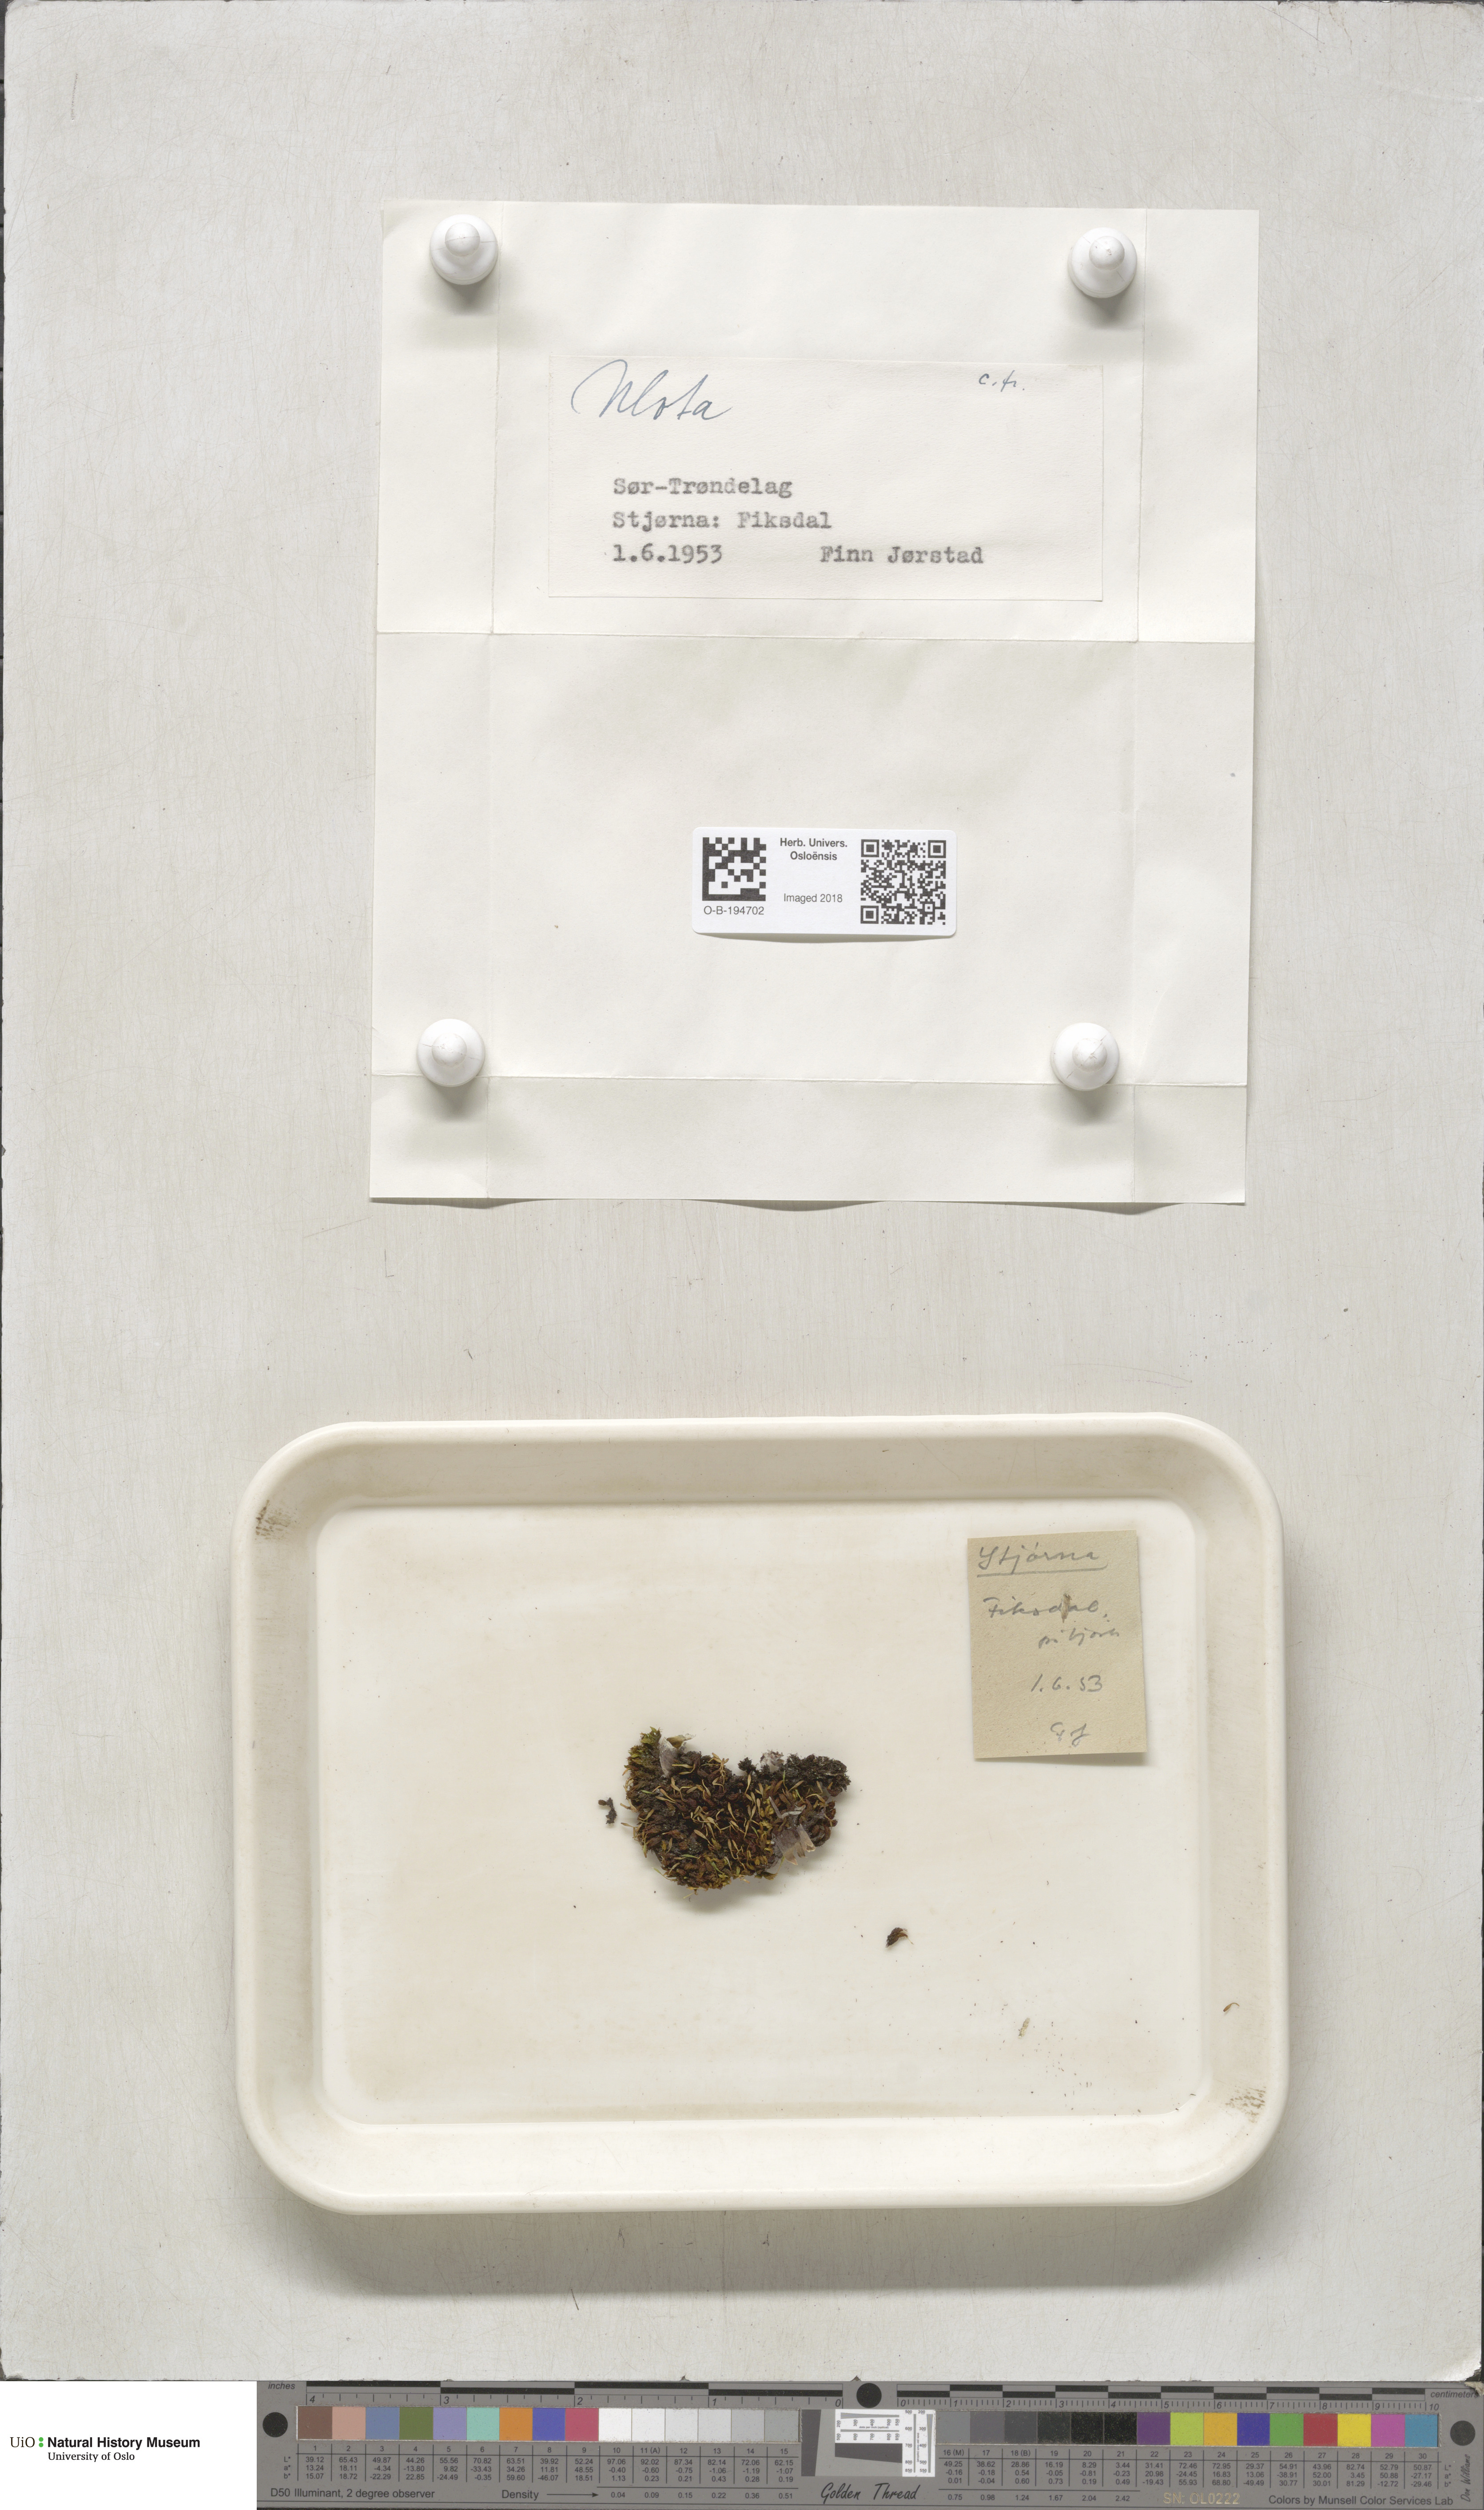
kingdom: Plantae
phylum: Bryophyta
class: Bryopsida
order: Orthotrichales
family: Orthotrichaceae
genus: Ulota
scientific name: Ulota
